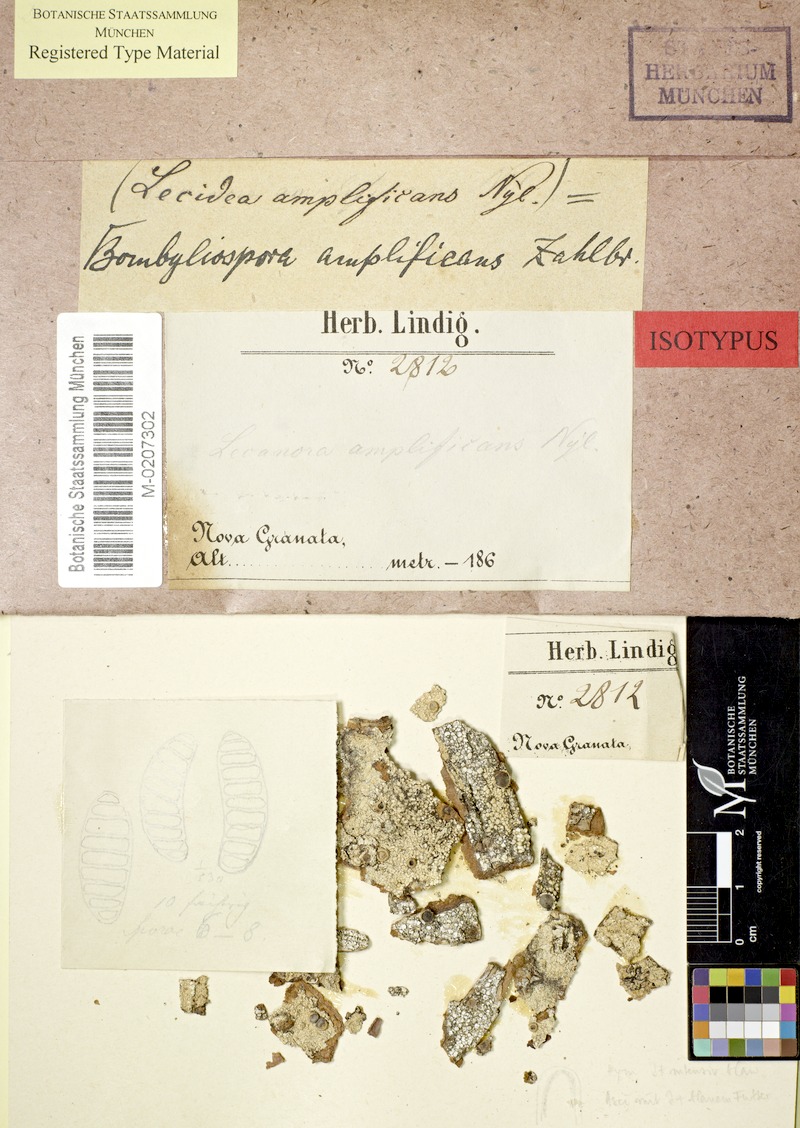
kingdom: Fungi
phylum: Ascomycota
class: Lecanoromycetes
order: Teloschistales
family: Megalosporaceae
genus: Megalospora
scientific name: Megalospora coccodes
